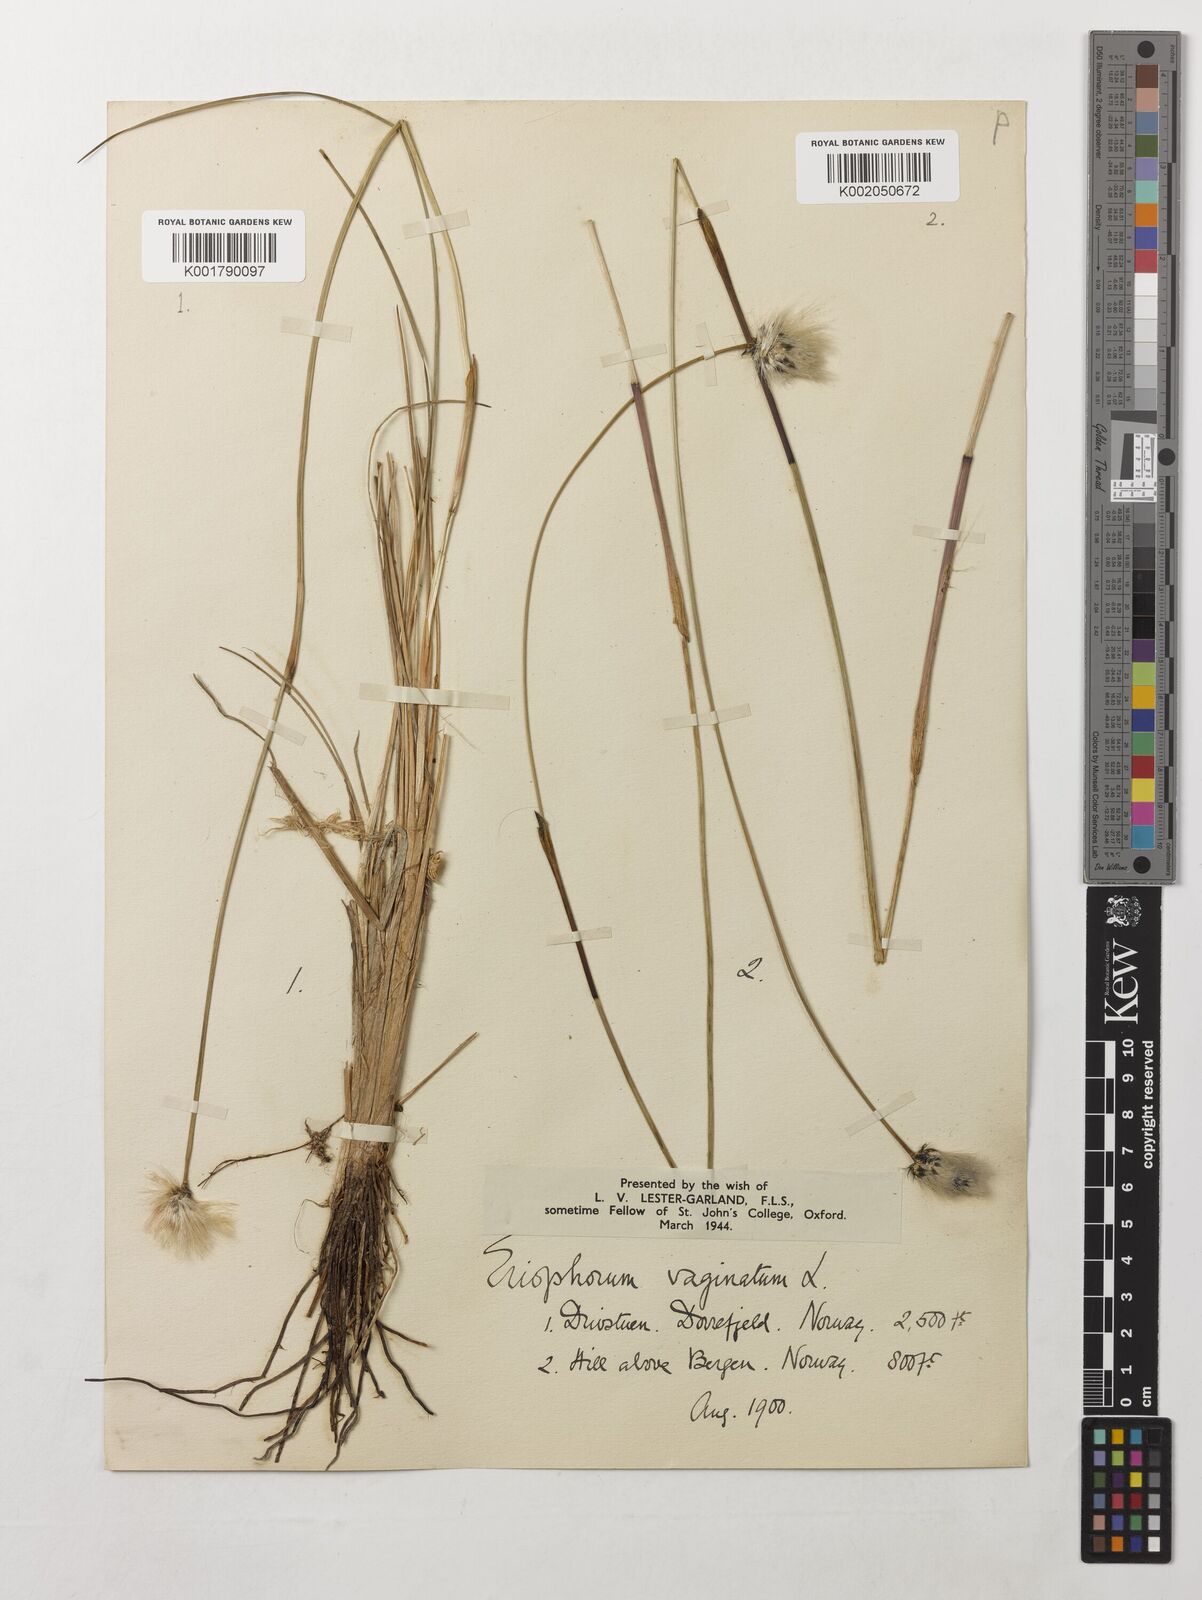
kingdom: Plantae
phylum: Tracheophyta
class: Liliopsida
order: Poales
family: Cyperaceae
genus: Eriophorum
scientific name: Eriophorum vaginatum
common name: Hare's-tail cottongrass
